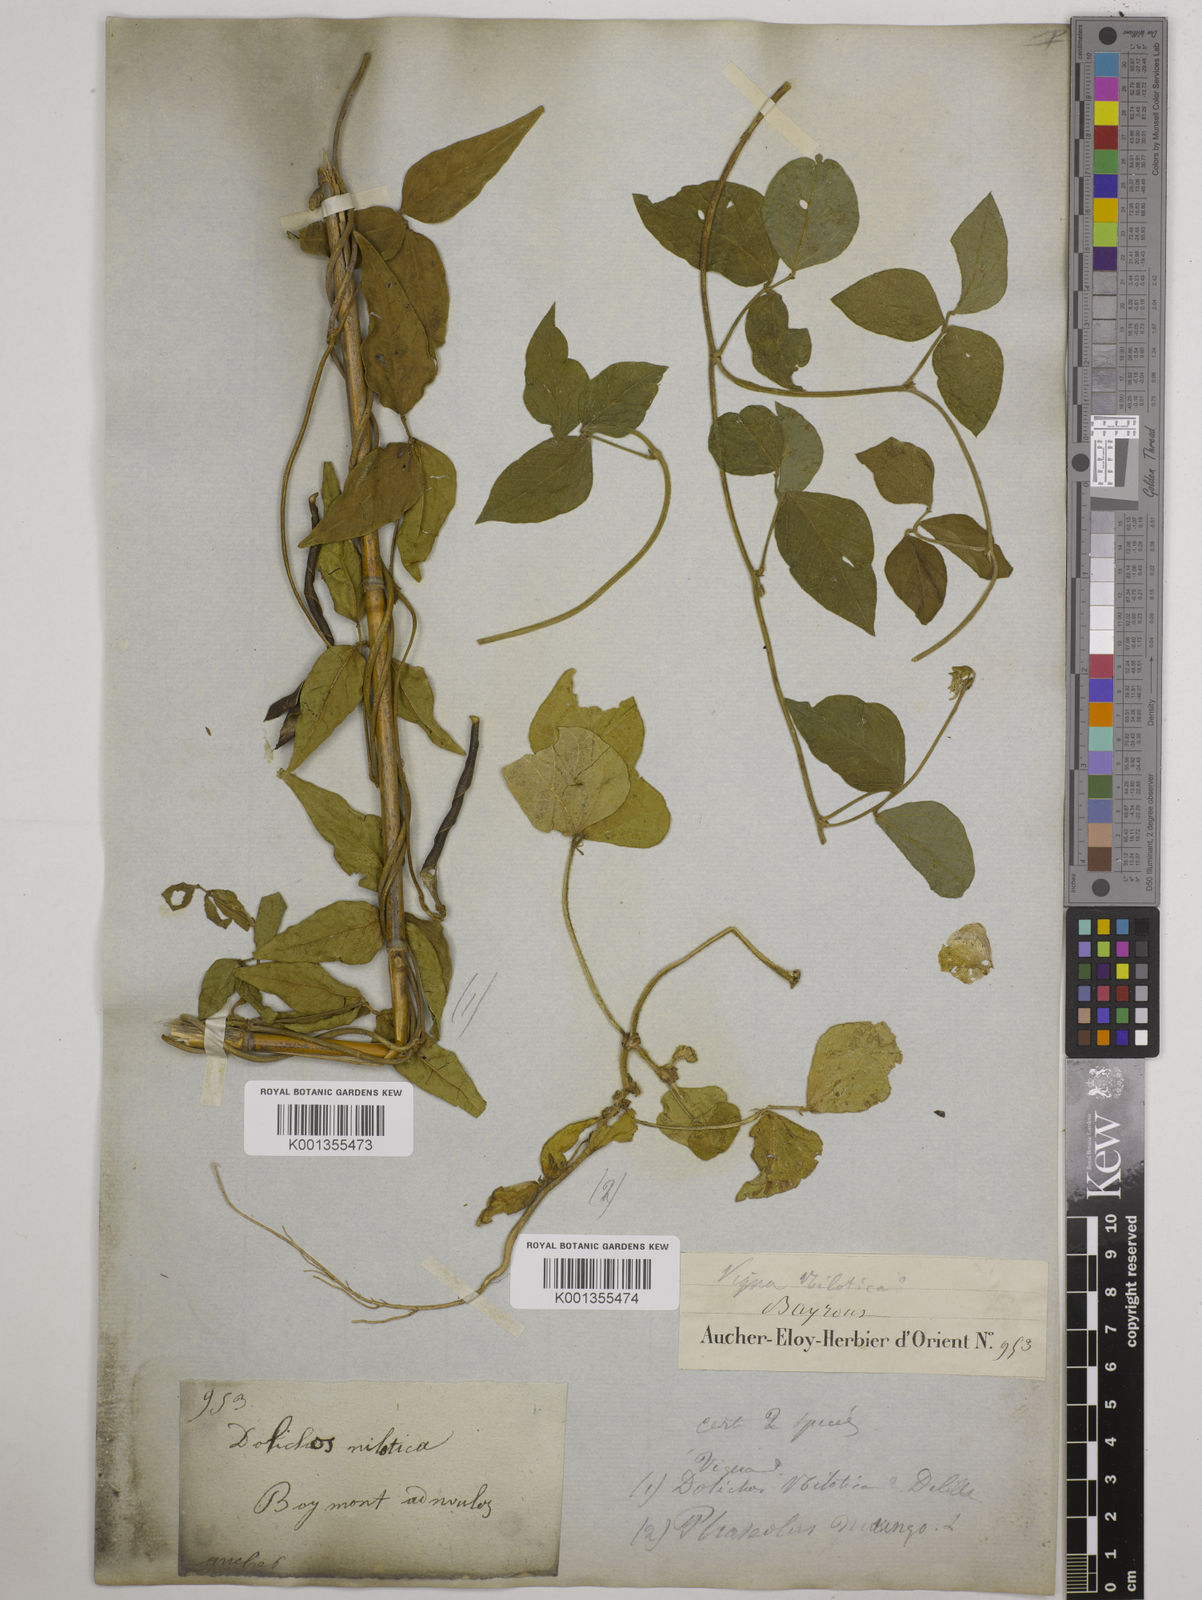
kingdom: Plantae
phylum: Tracheophyta
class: Magnoliopsida
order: Fabales
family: Fabaceae
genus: Vigna
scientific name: Vigna luteola
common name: Hairypod cowpea
